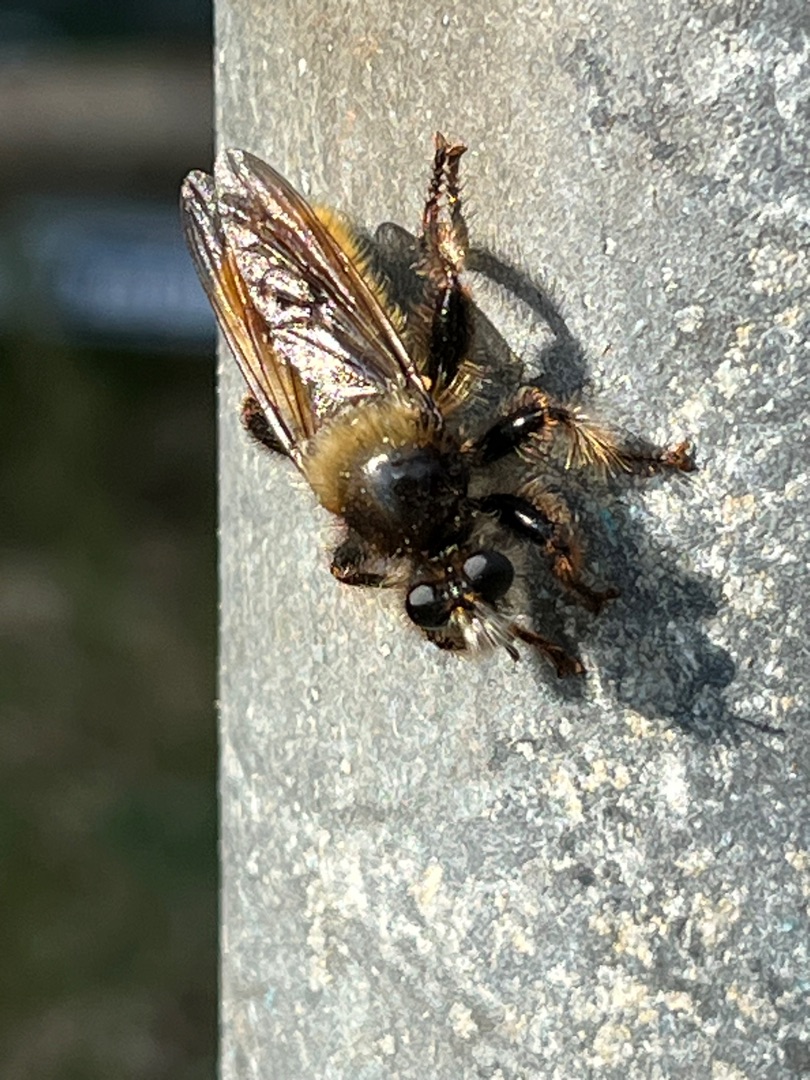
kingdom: Animalia
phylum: Arthropoda
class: Insecta
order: Diptera
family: Asilidae
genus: Laphria
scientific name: Laphria flava
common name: Gul vedrovflue
